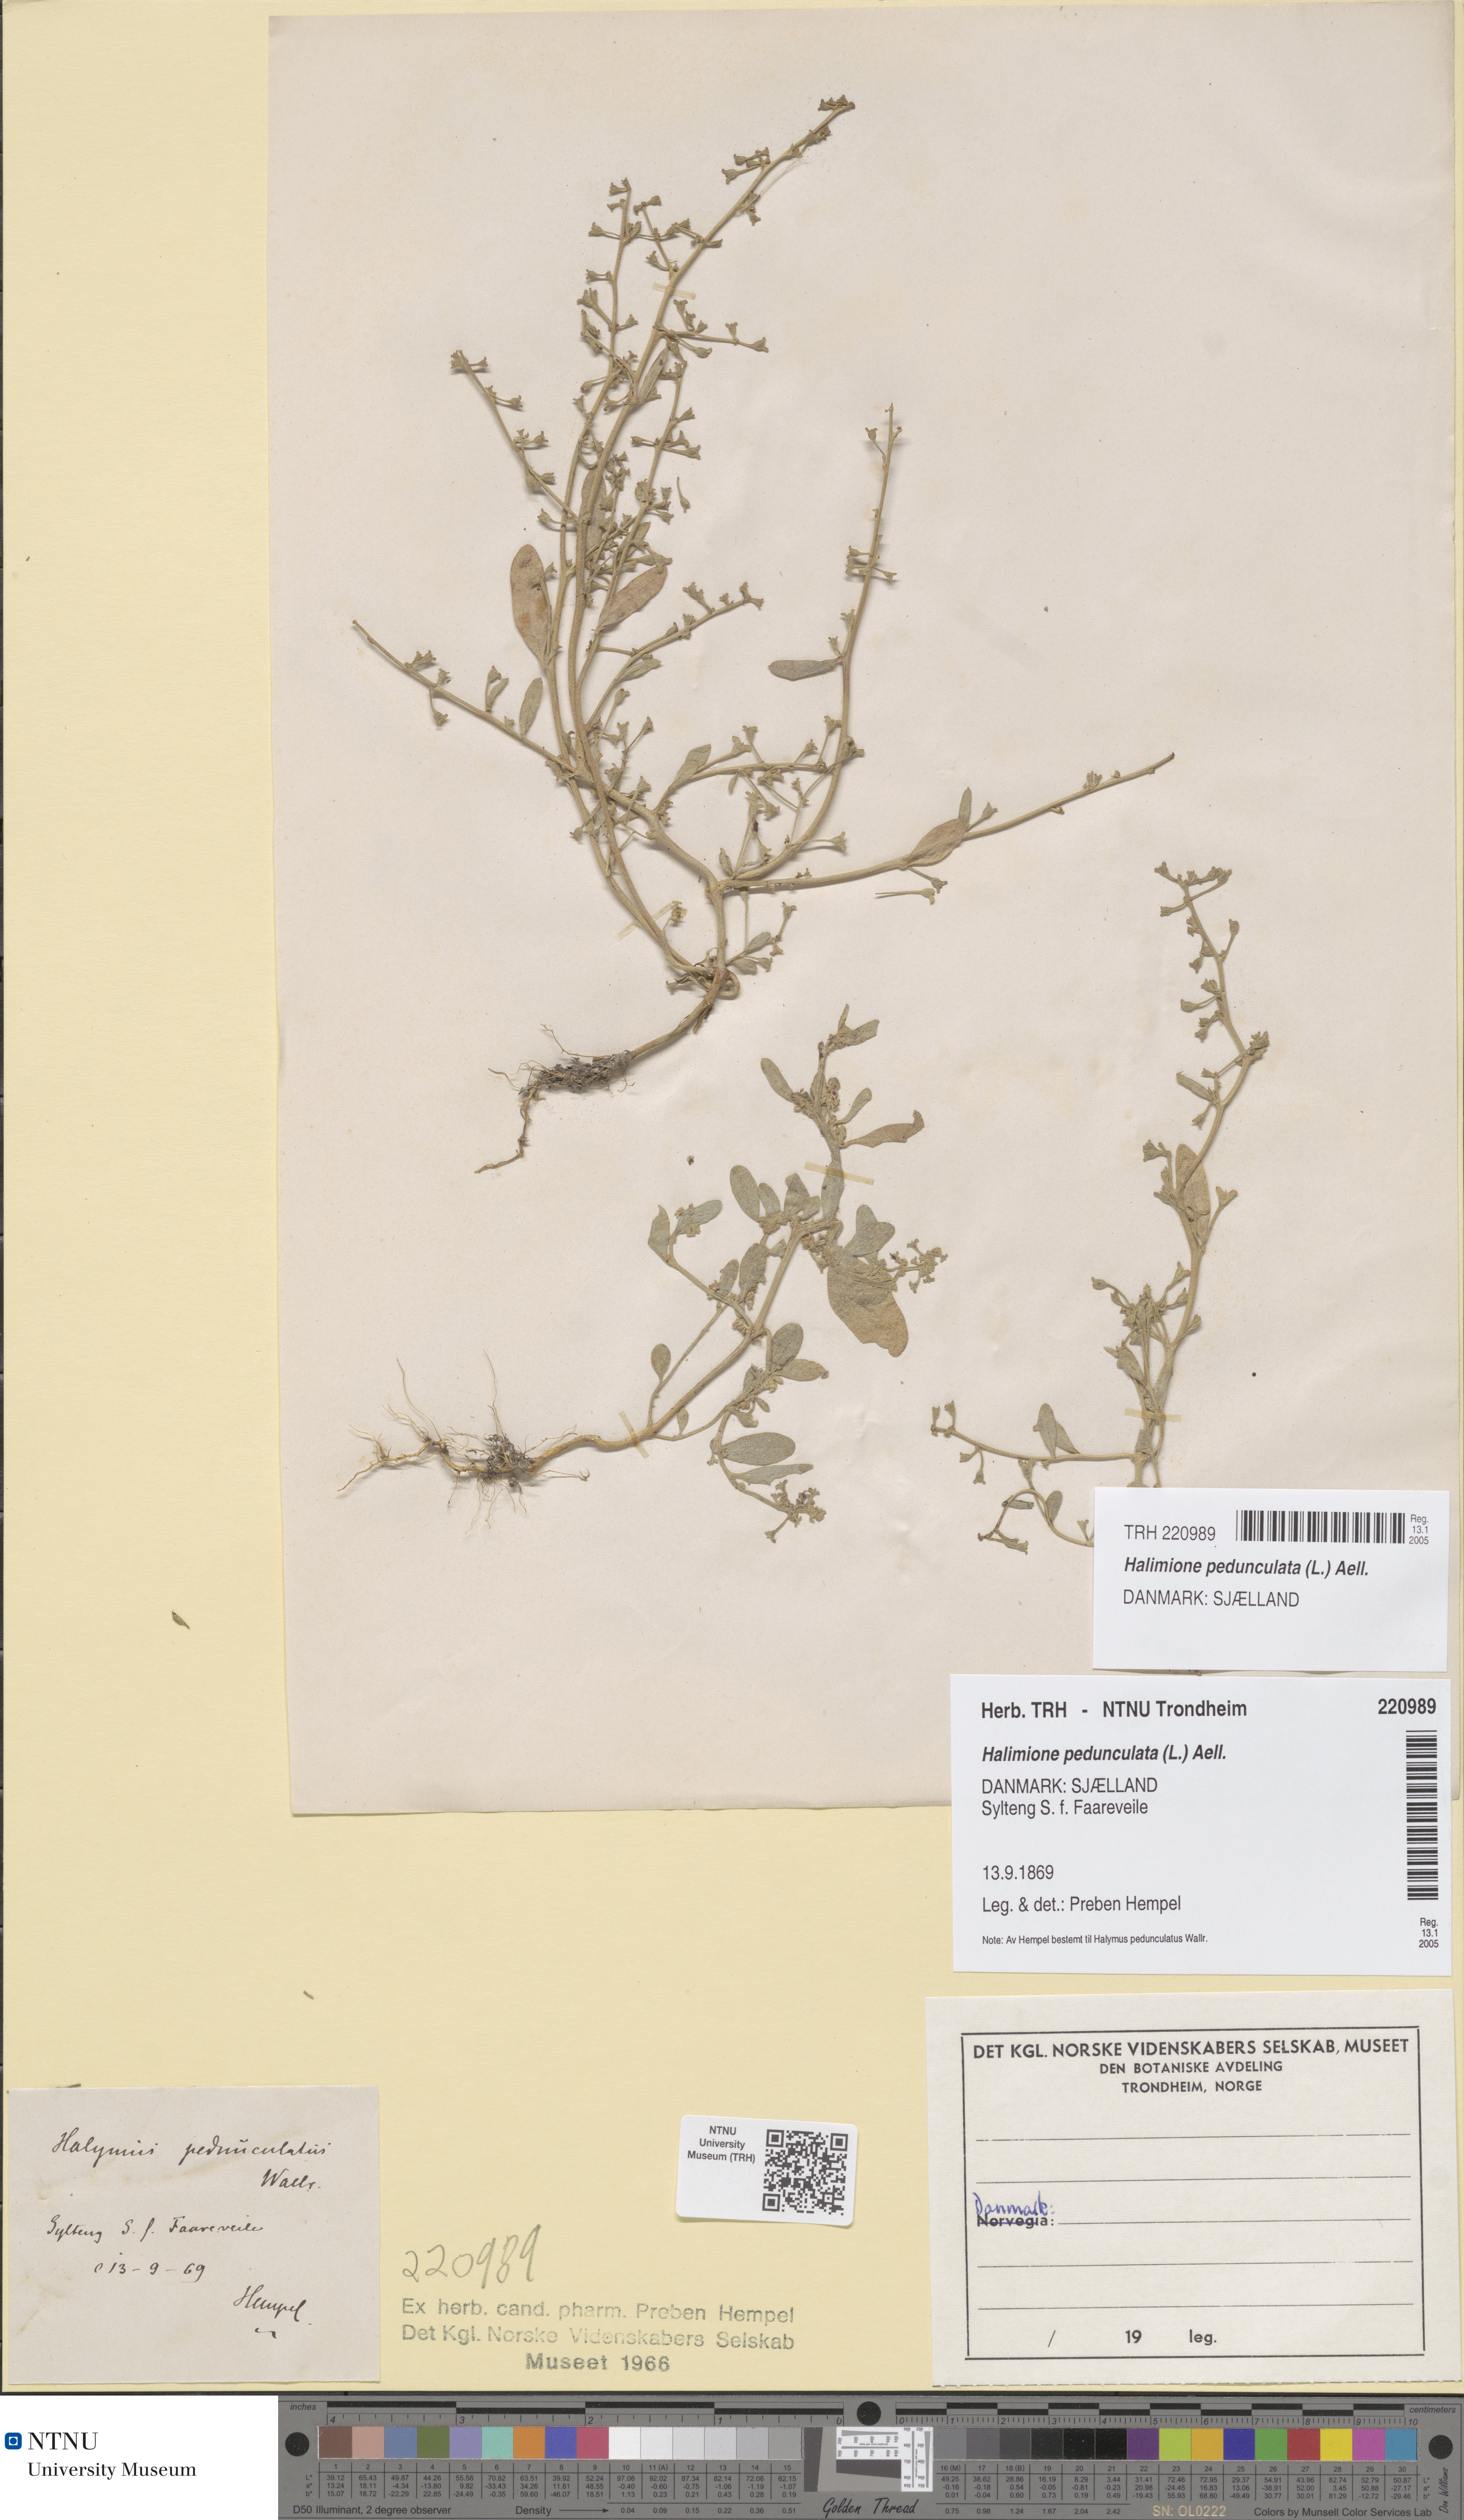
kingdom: Plantae
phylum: Tracheophyta
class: Magnoliopsida
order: Caryophyllales
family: Amaranthaceae
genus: Halimione
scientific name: Halimione pedunculata
